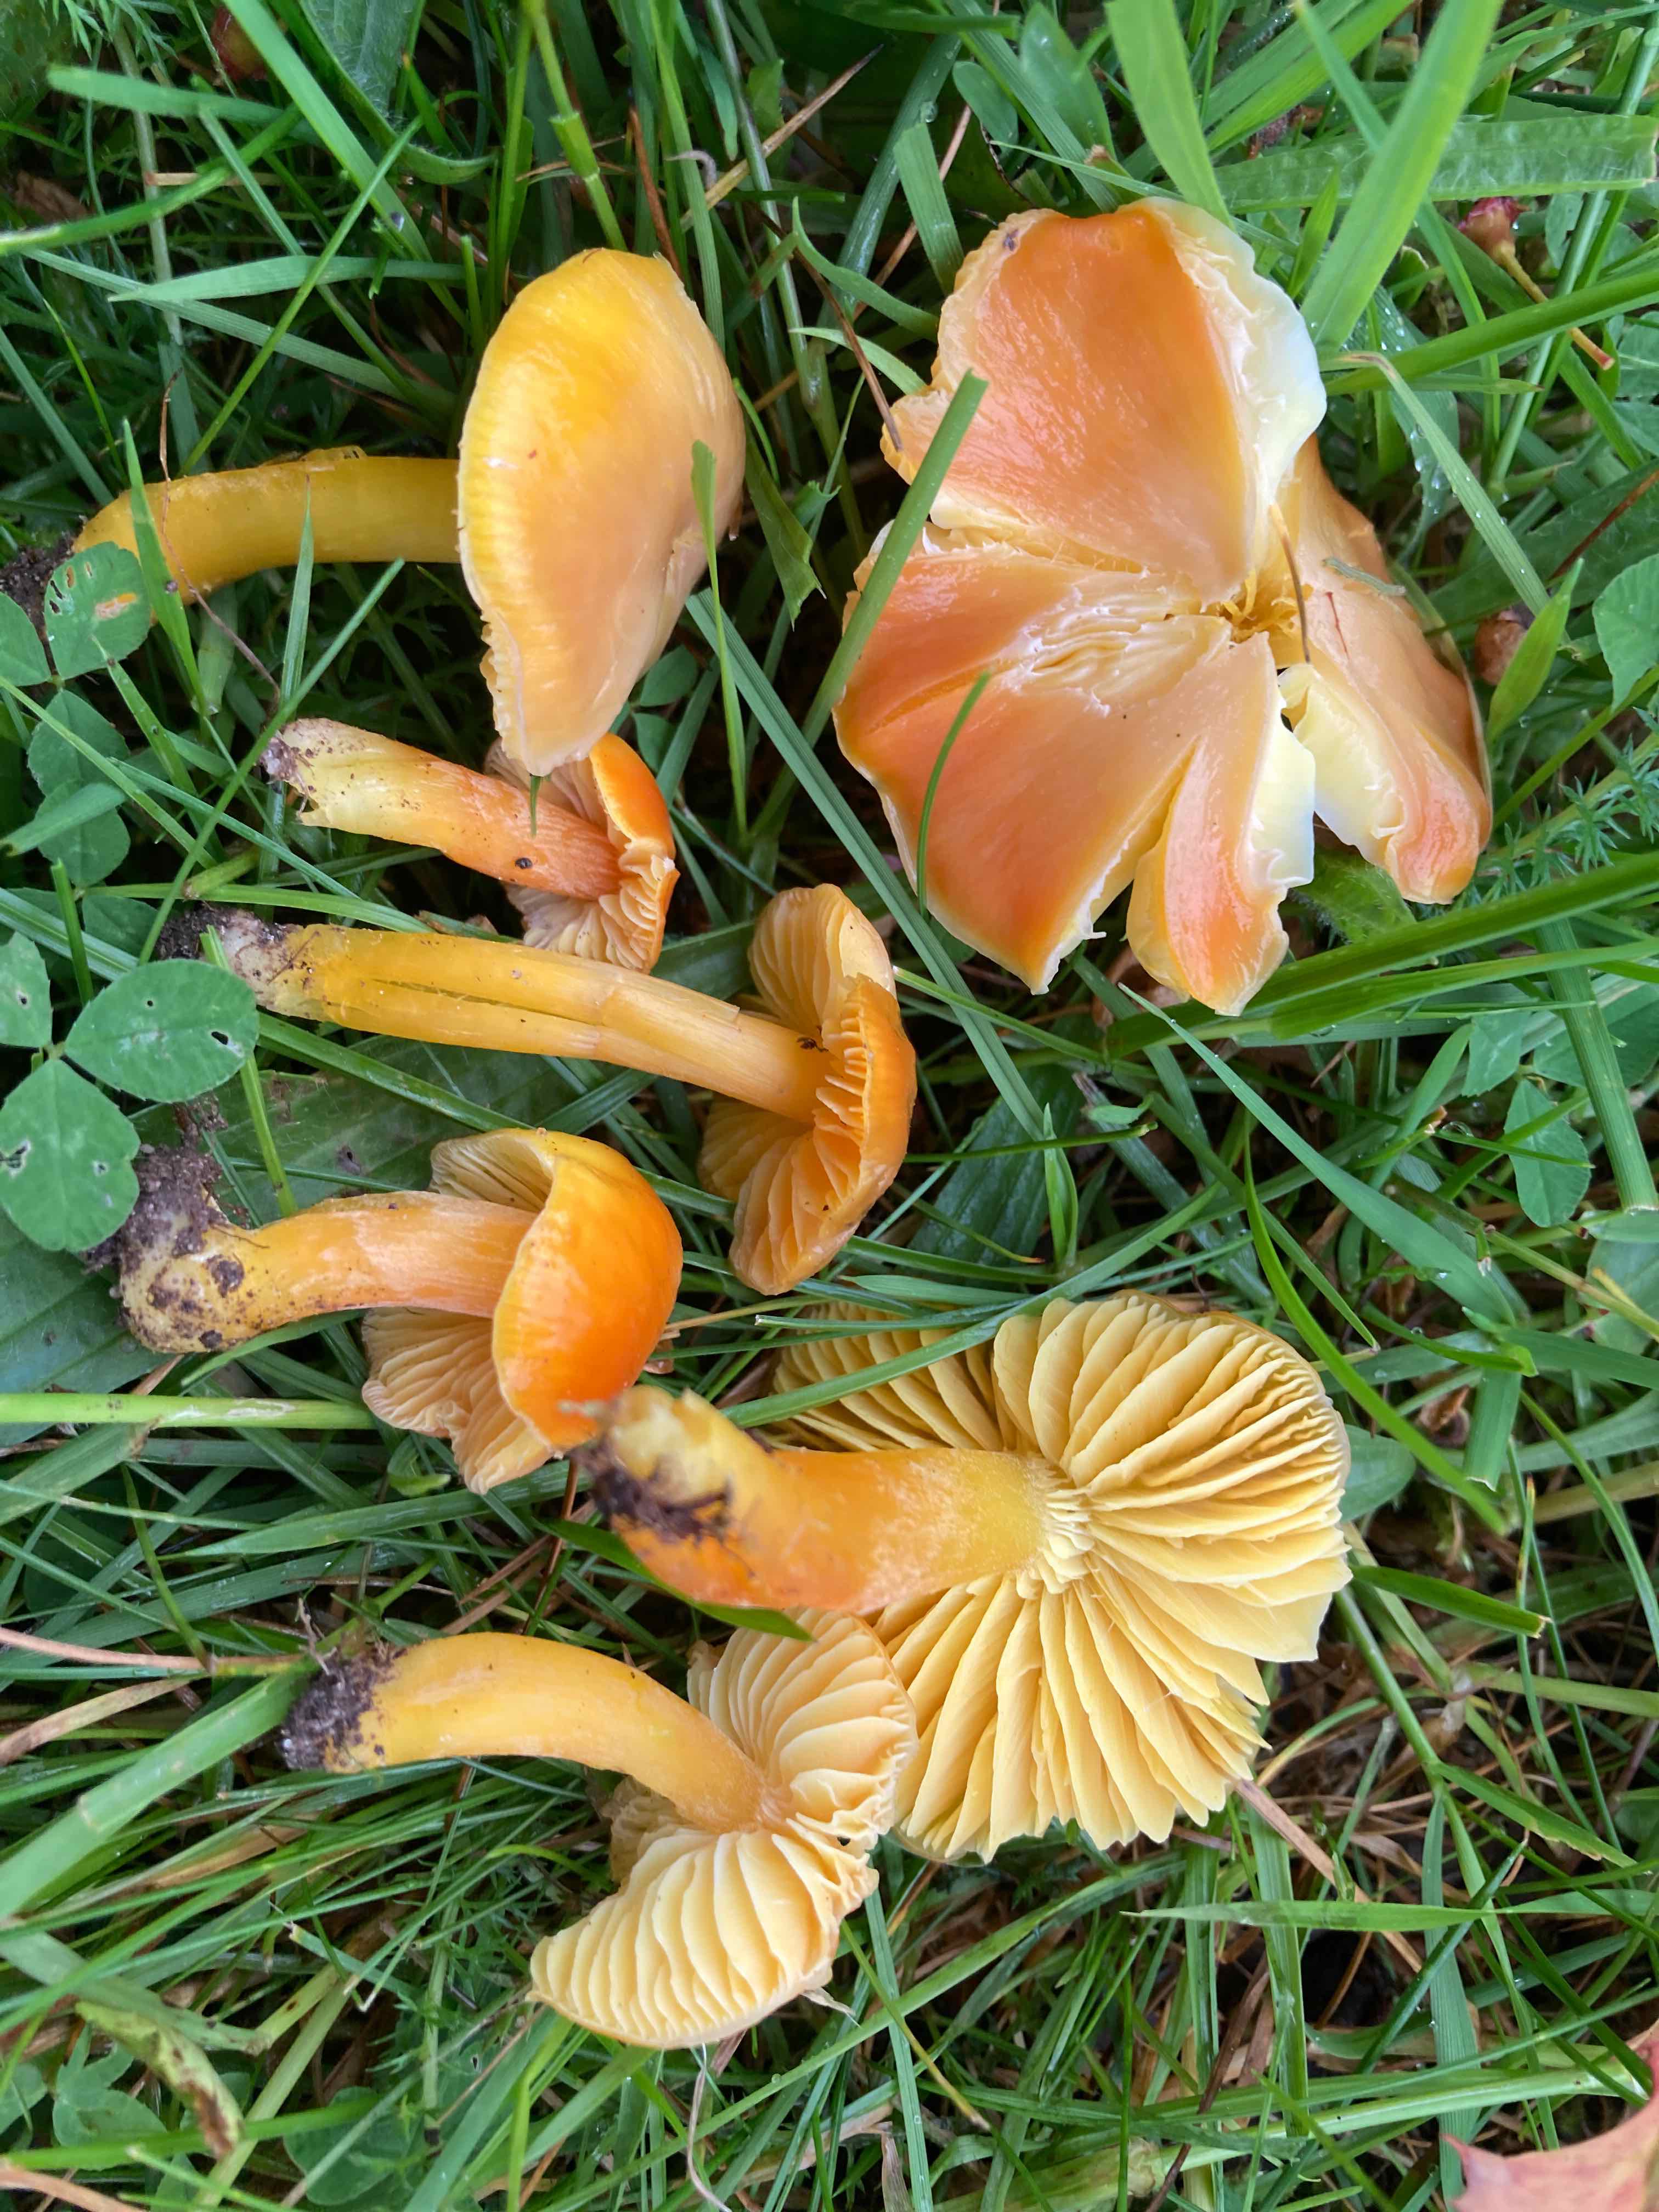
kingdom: Fungi
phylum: Basidiomycota
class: Agaricomycetes
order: Agaricales
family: Hygrophoraceae
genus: Hygrocybe
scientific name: Hygrocybe chlorophana
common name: gul vokshat
